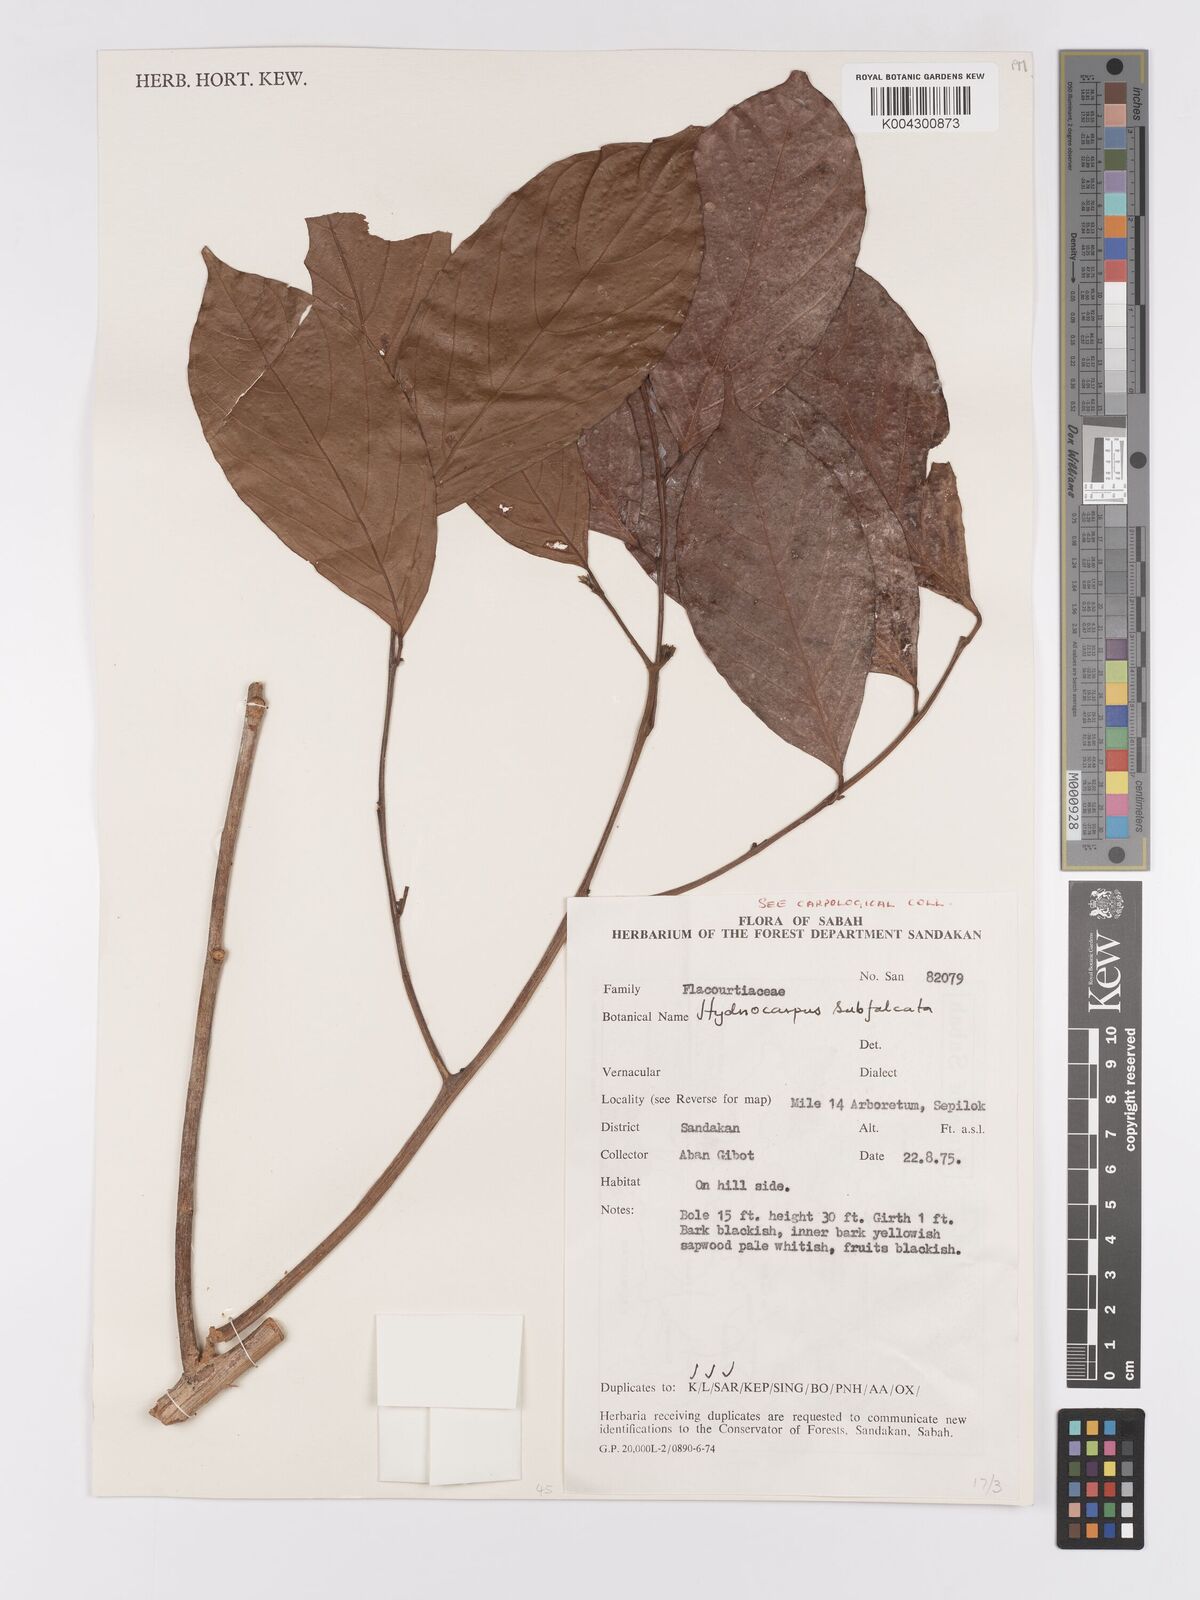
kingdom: Plantae
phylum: Tracheophyta
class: Magnoliopsida
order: Malpighiales
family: Achariaceae
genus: Hydnocarpus
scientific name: Hydnocarpus subfalcatus
